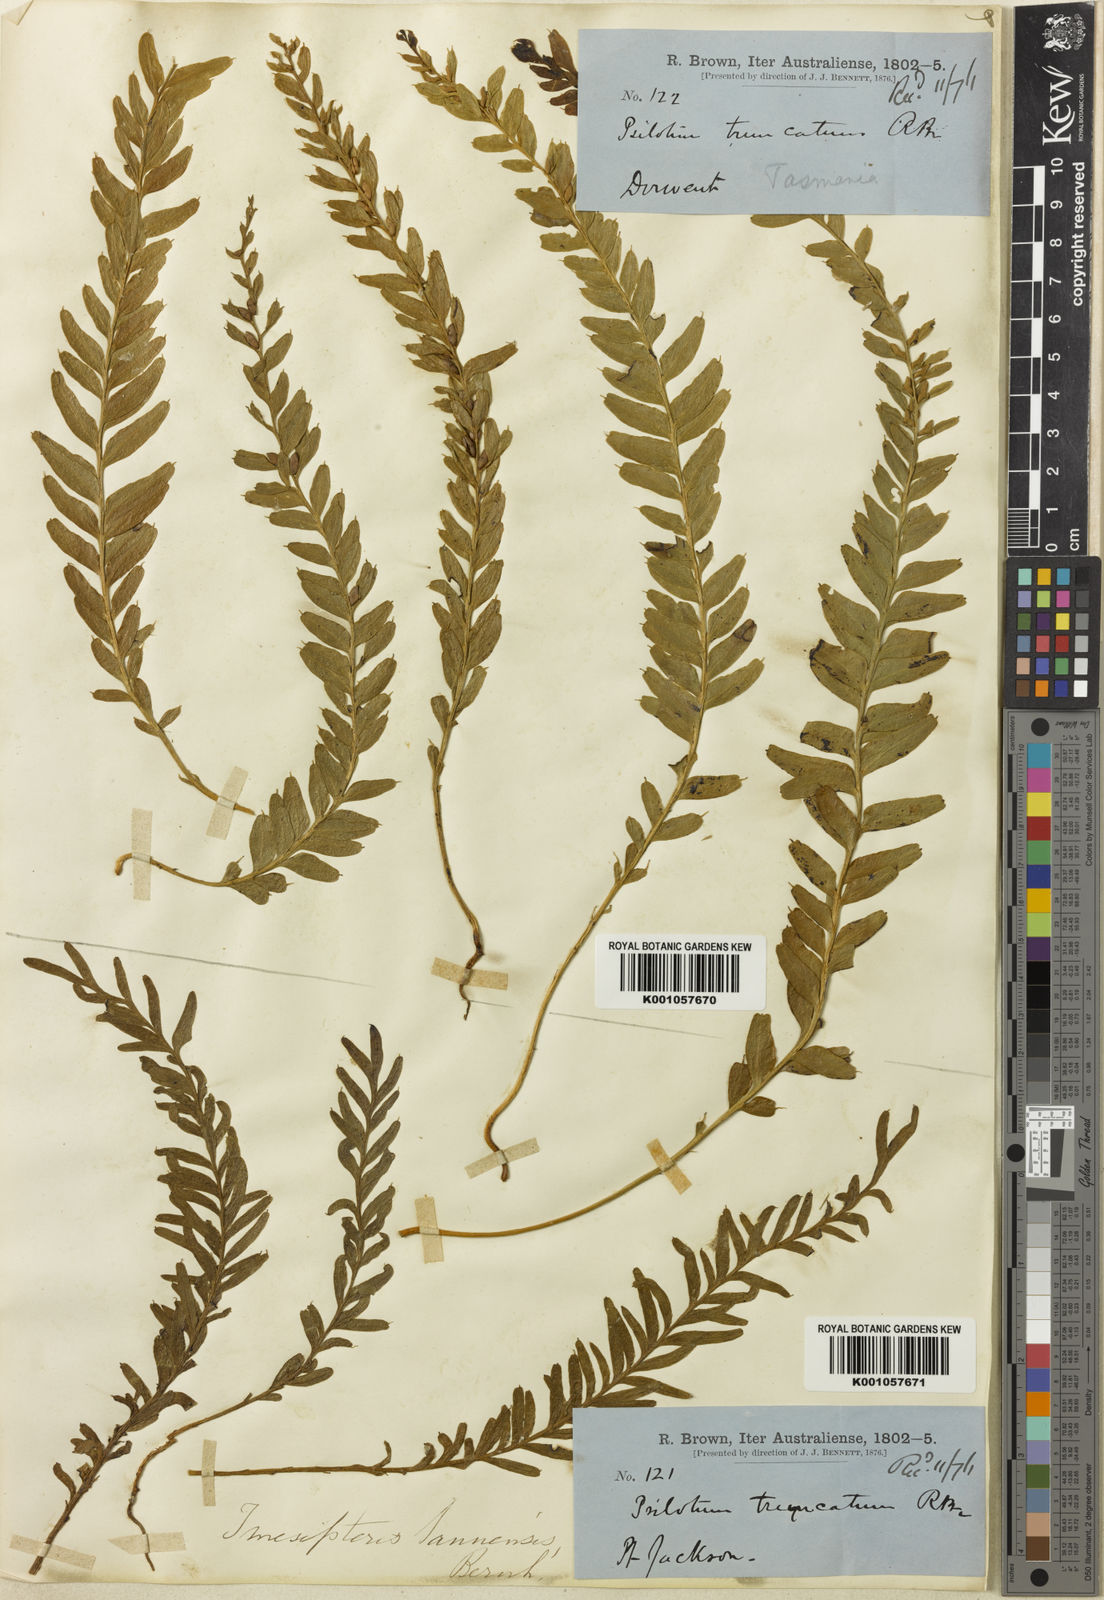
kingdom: Plantae
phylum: Tracheophyta
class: Polypodiopsida
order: Psilotales
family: Psilotaceae
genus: Tmesipteris
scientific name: Tmesipteris truncata
